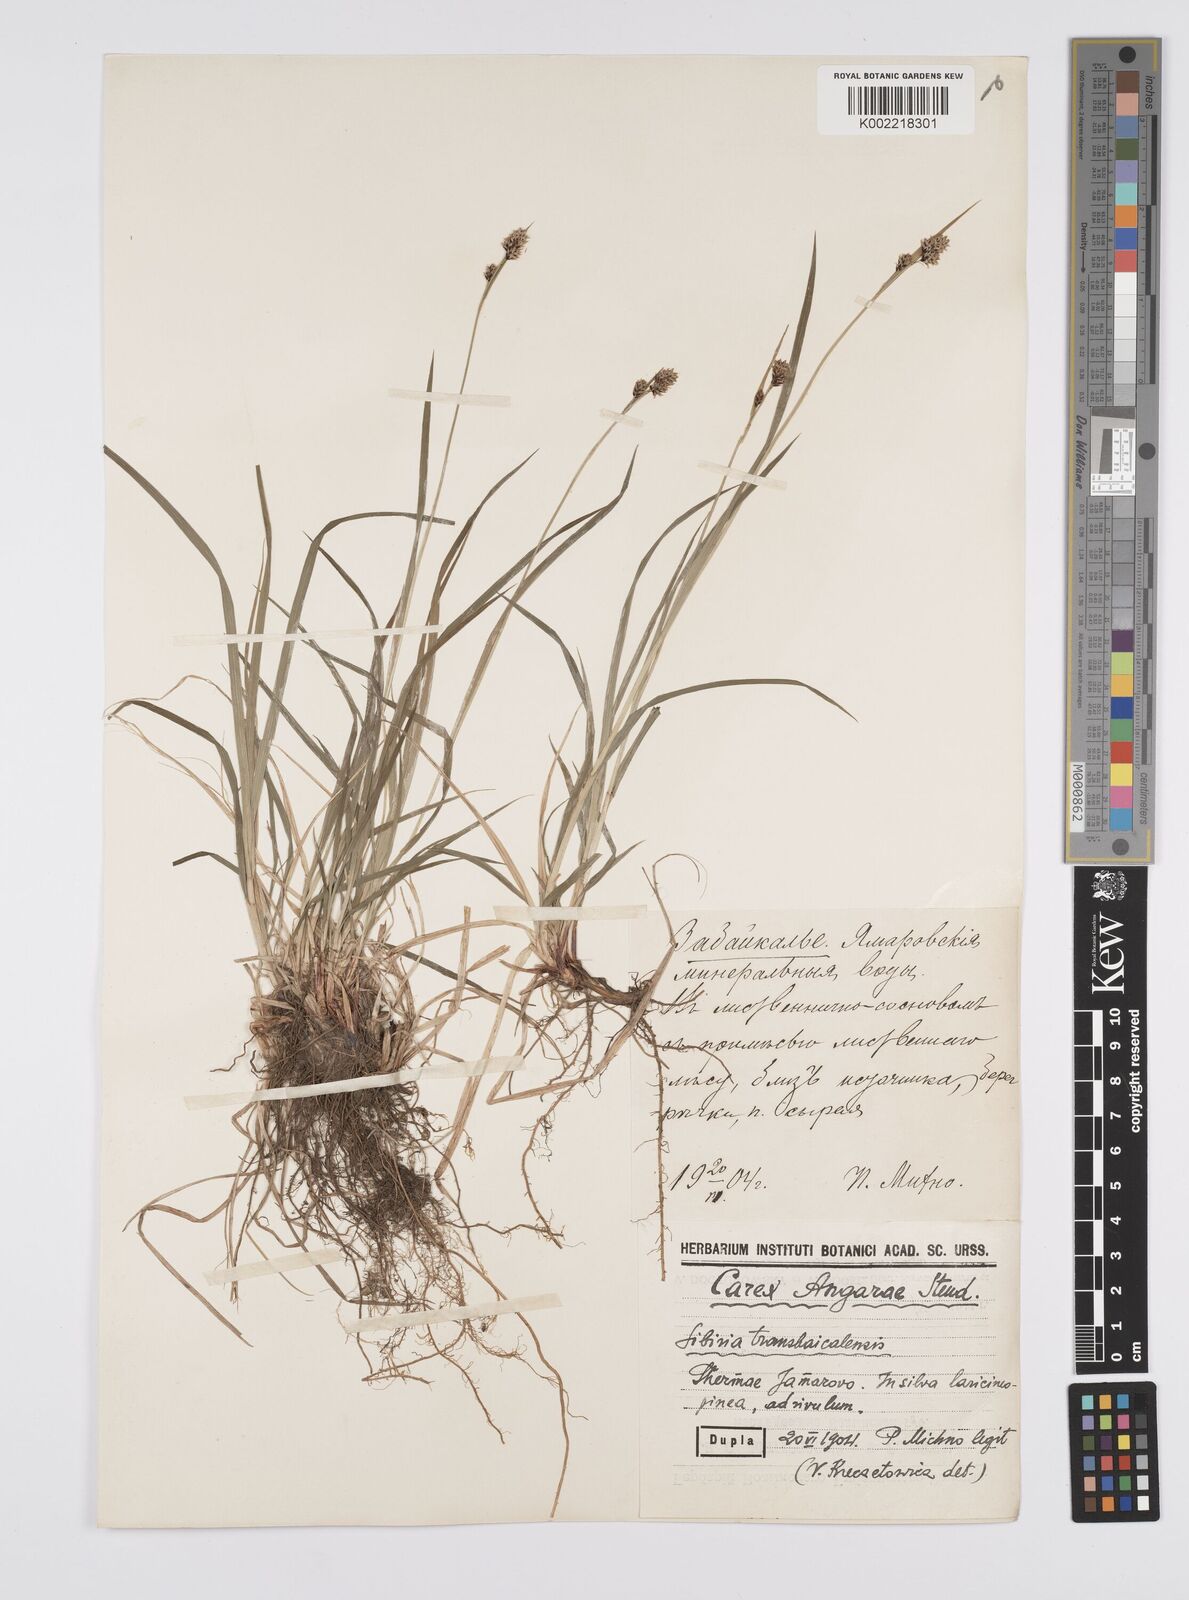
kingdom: Plantae
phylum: Tracheophyta
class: Liliopsida
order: Poales
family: Cyperaceae
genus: Carex
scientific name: Carex nigra
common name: Common sedge
